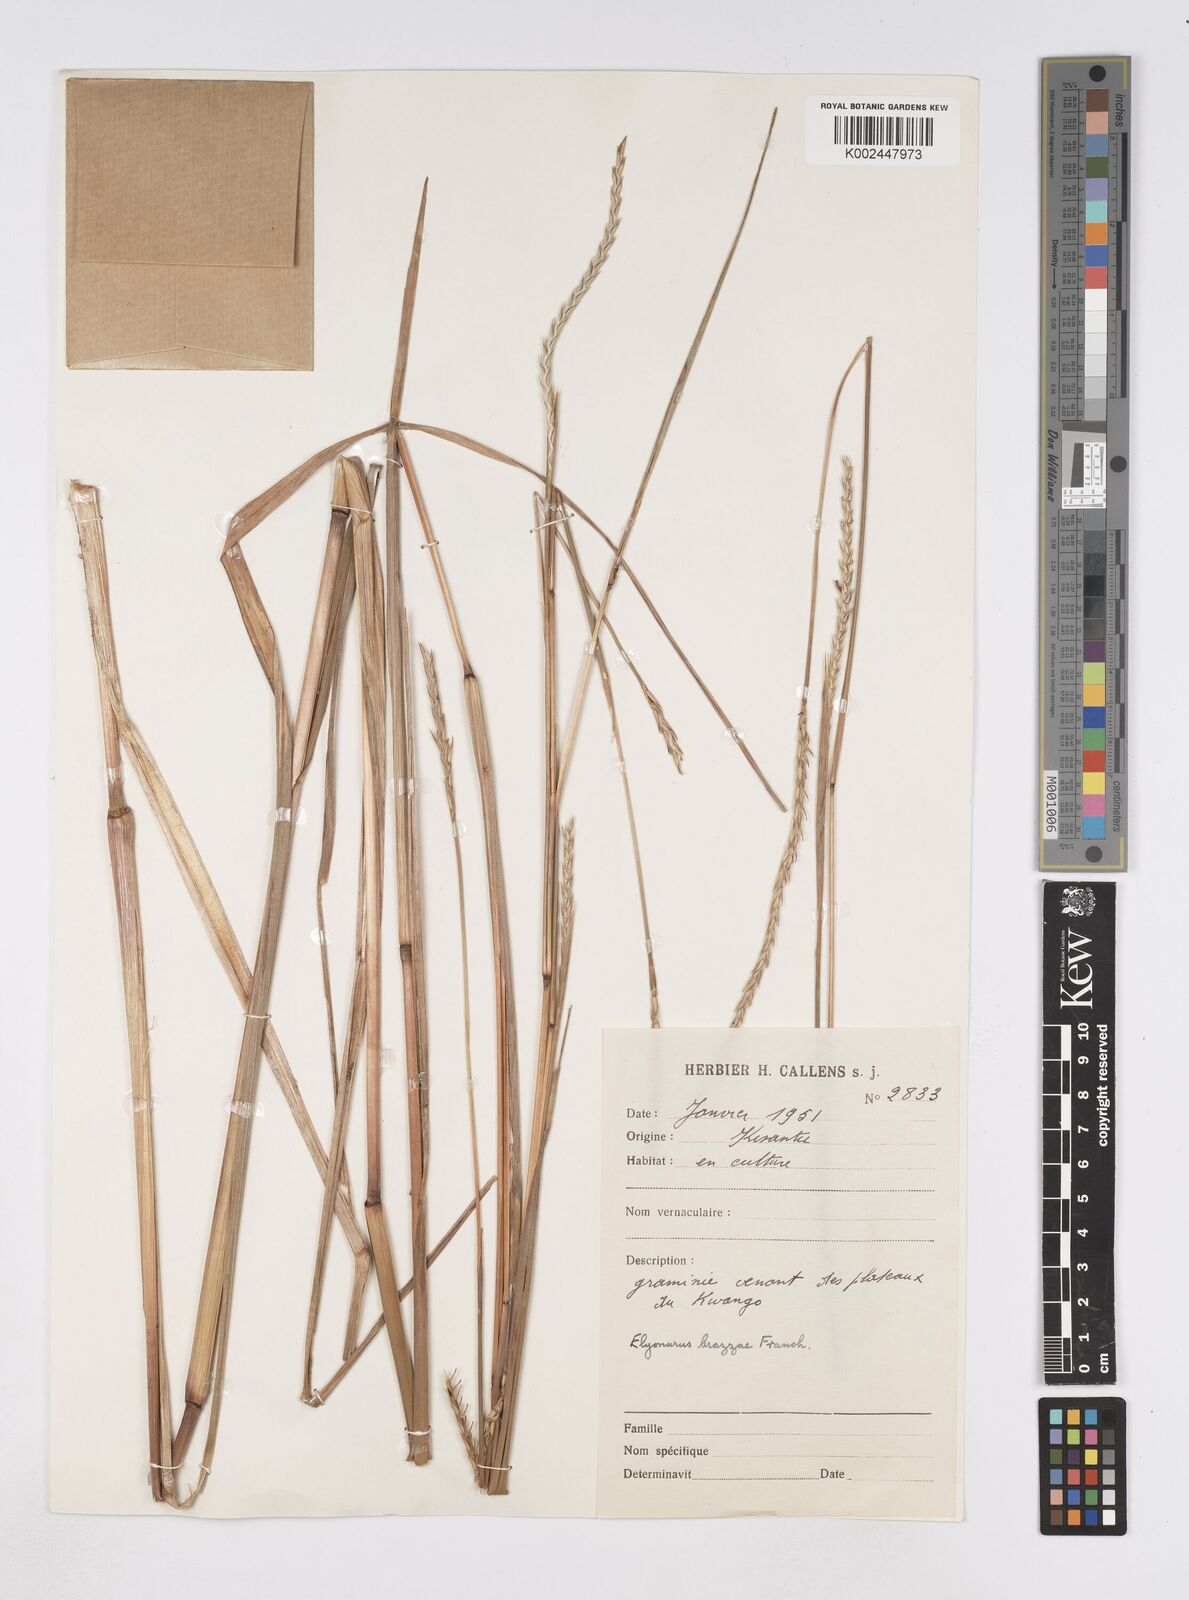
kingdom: Plantae
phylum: Tracheophyta
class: Liliopsida
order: Poales
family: Poaceae
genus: Elionurus
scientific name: Elionurus platypus
